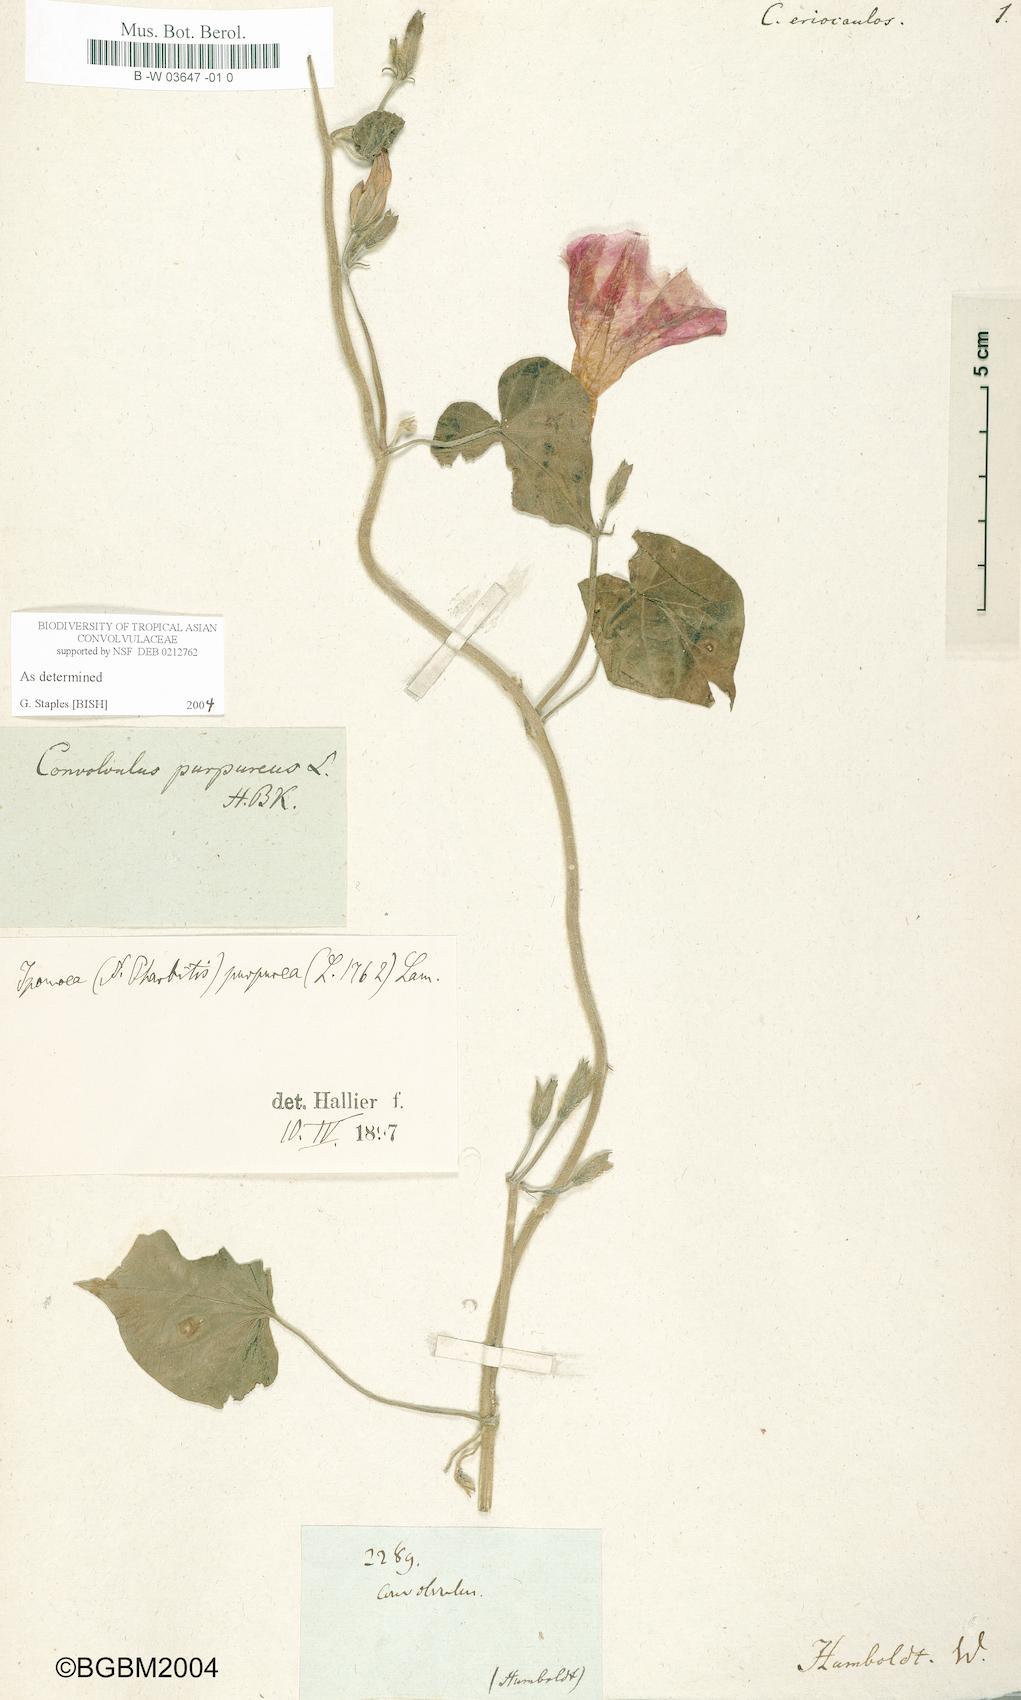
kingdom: Plantae
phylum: Tracheophyta
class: Magnoliopsida
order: Solanales
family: Convolvulaceae
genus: Convolvulus
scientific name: Convolvulus eriocaulos
